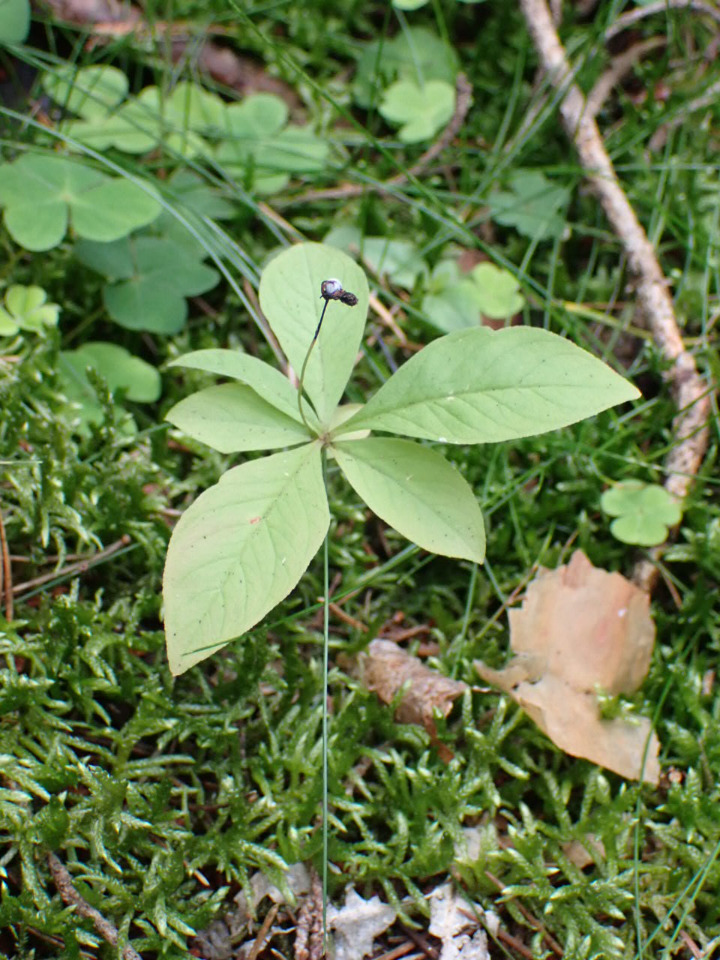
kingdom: Plantae
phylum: Tracheophyta
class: Magnoliopsida
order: Ericales
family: Primulaceae
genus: Lysimachia
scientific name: Lysimachia europaea
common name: Skovstjerne
